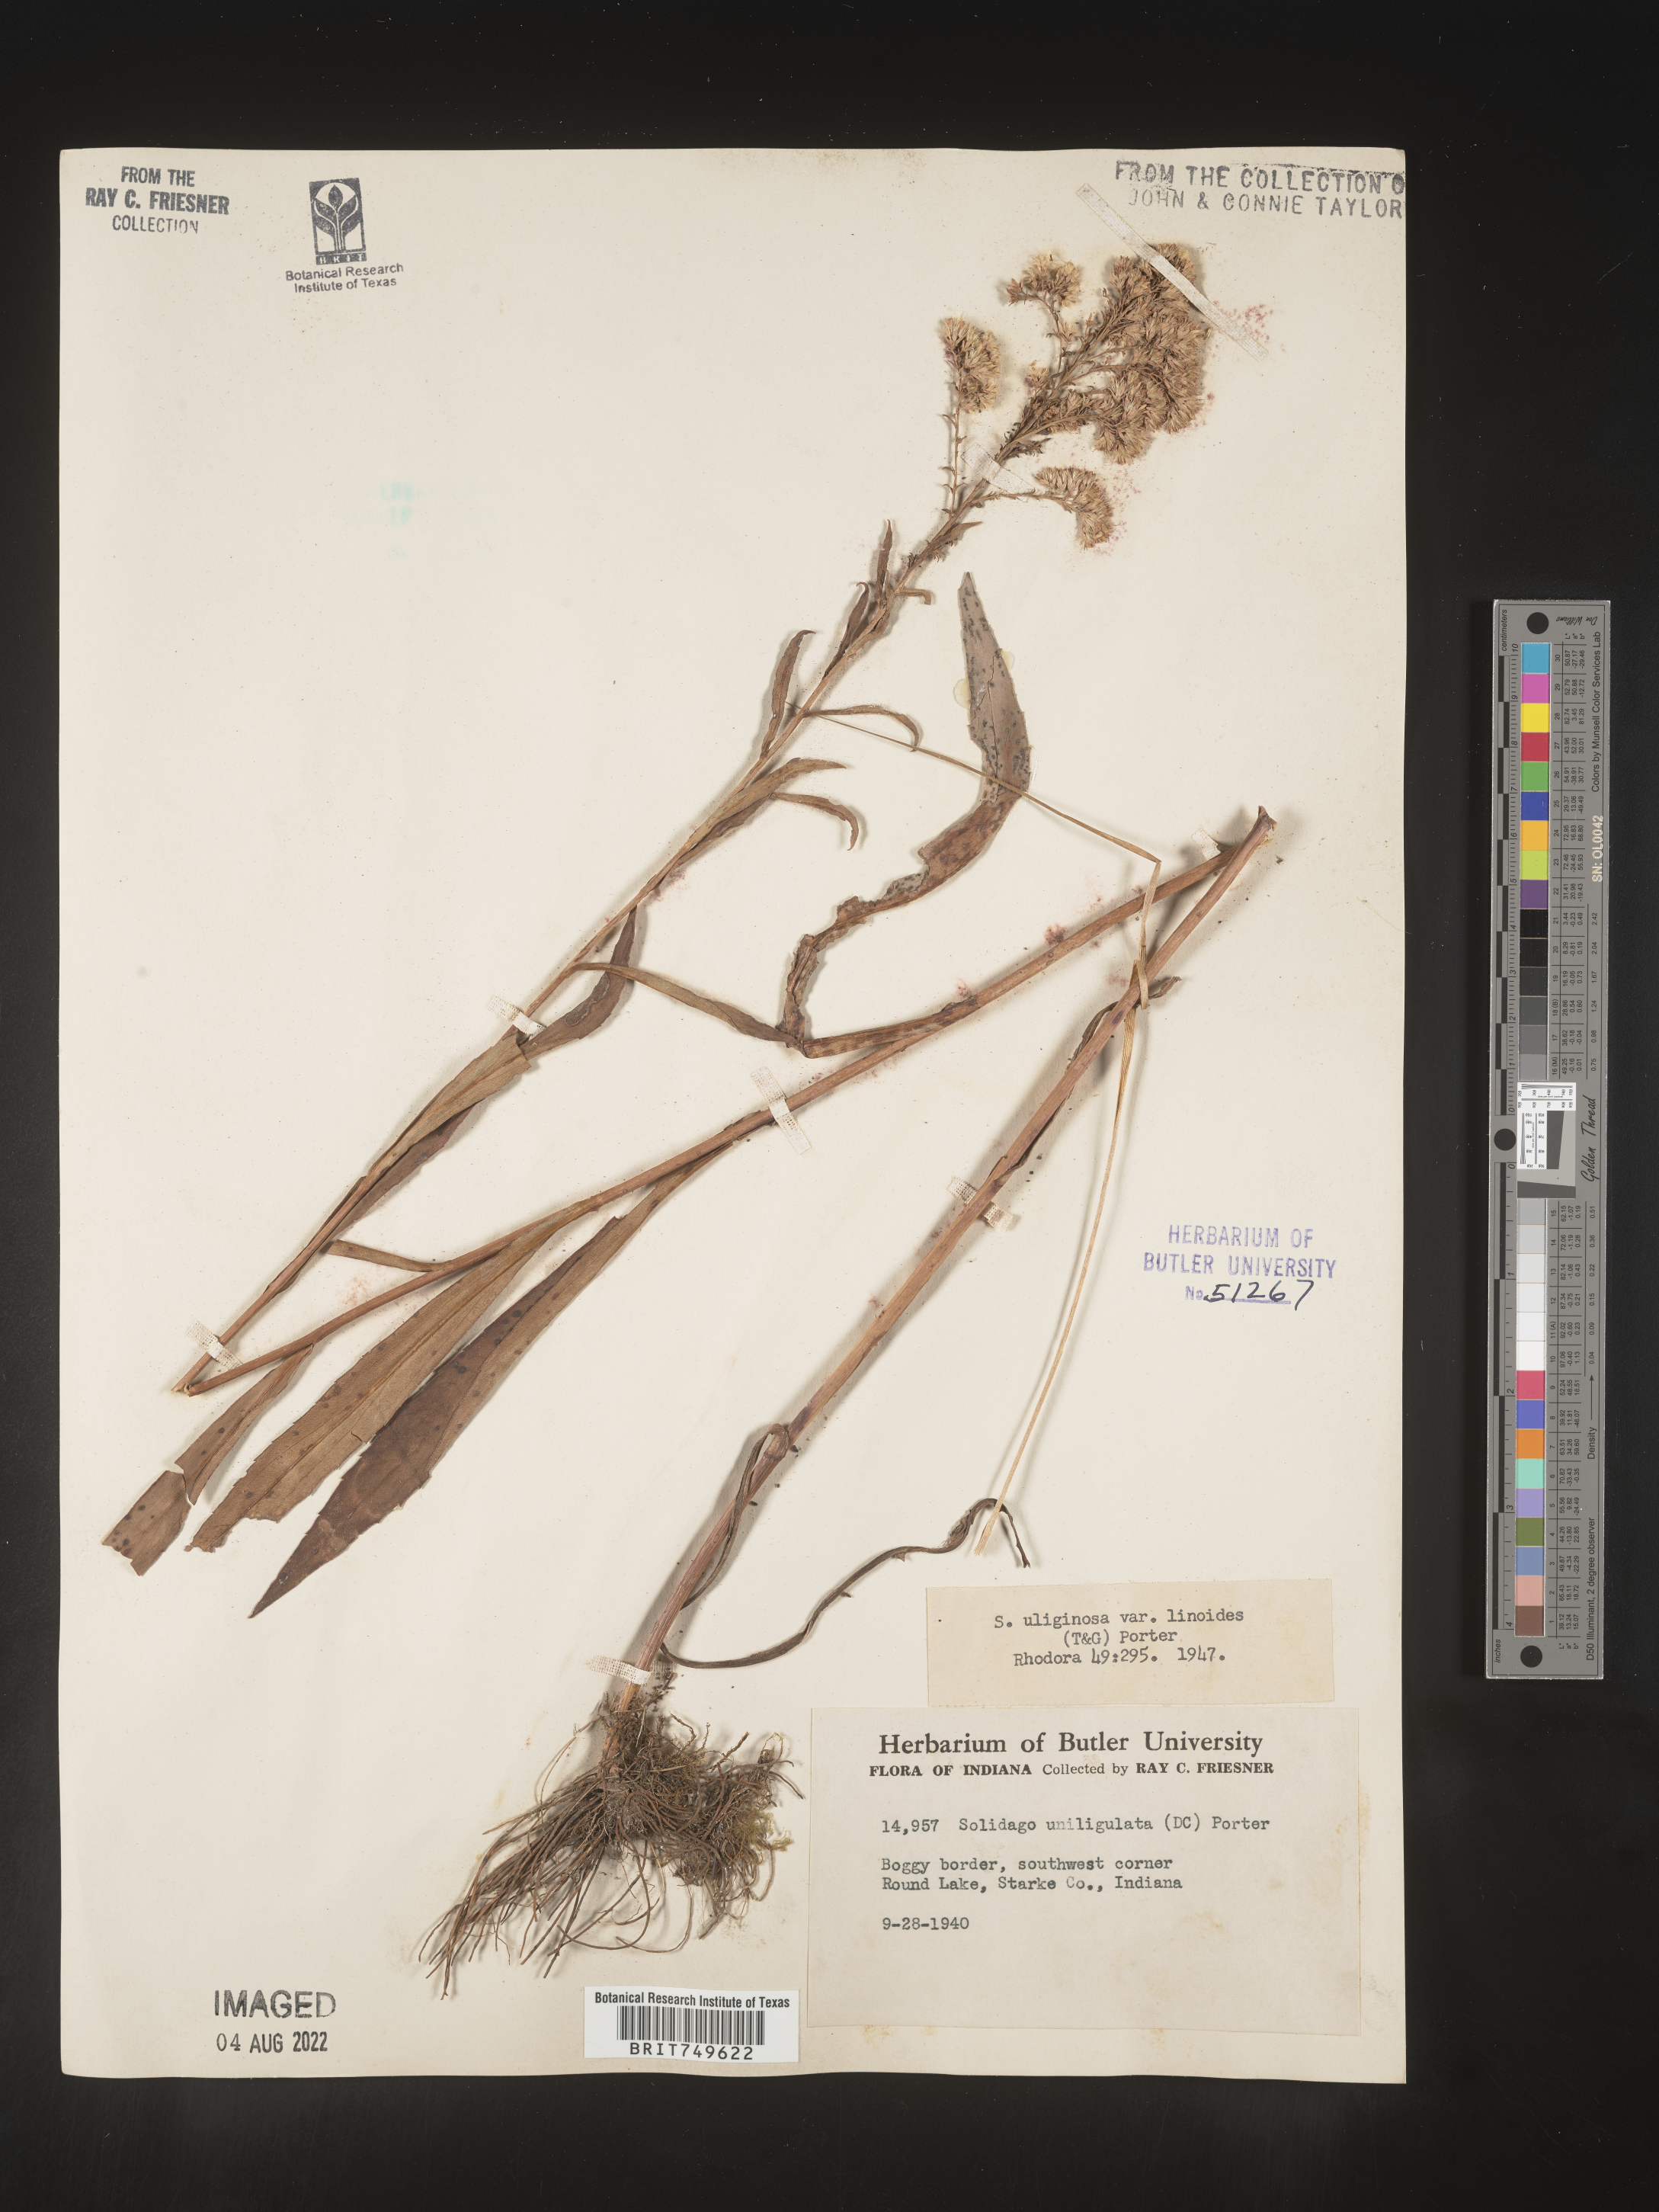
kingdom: Plantae
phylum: Tracheophyta
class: Magnoliopsida
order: Asterales
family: Asteraceae
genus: Solidago
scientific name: Solidago uliginosa
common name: Bog goldenrod
